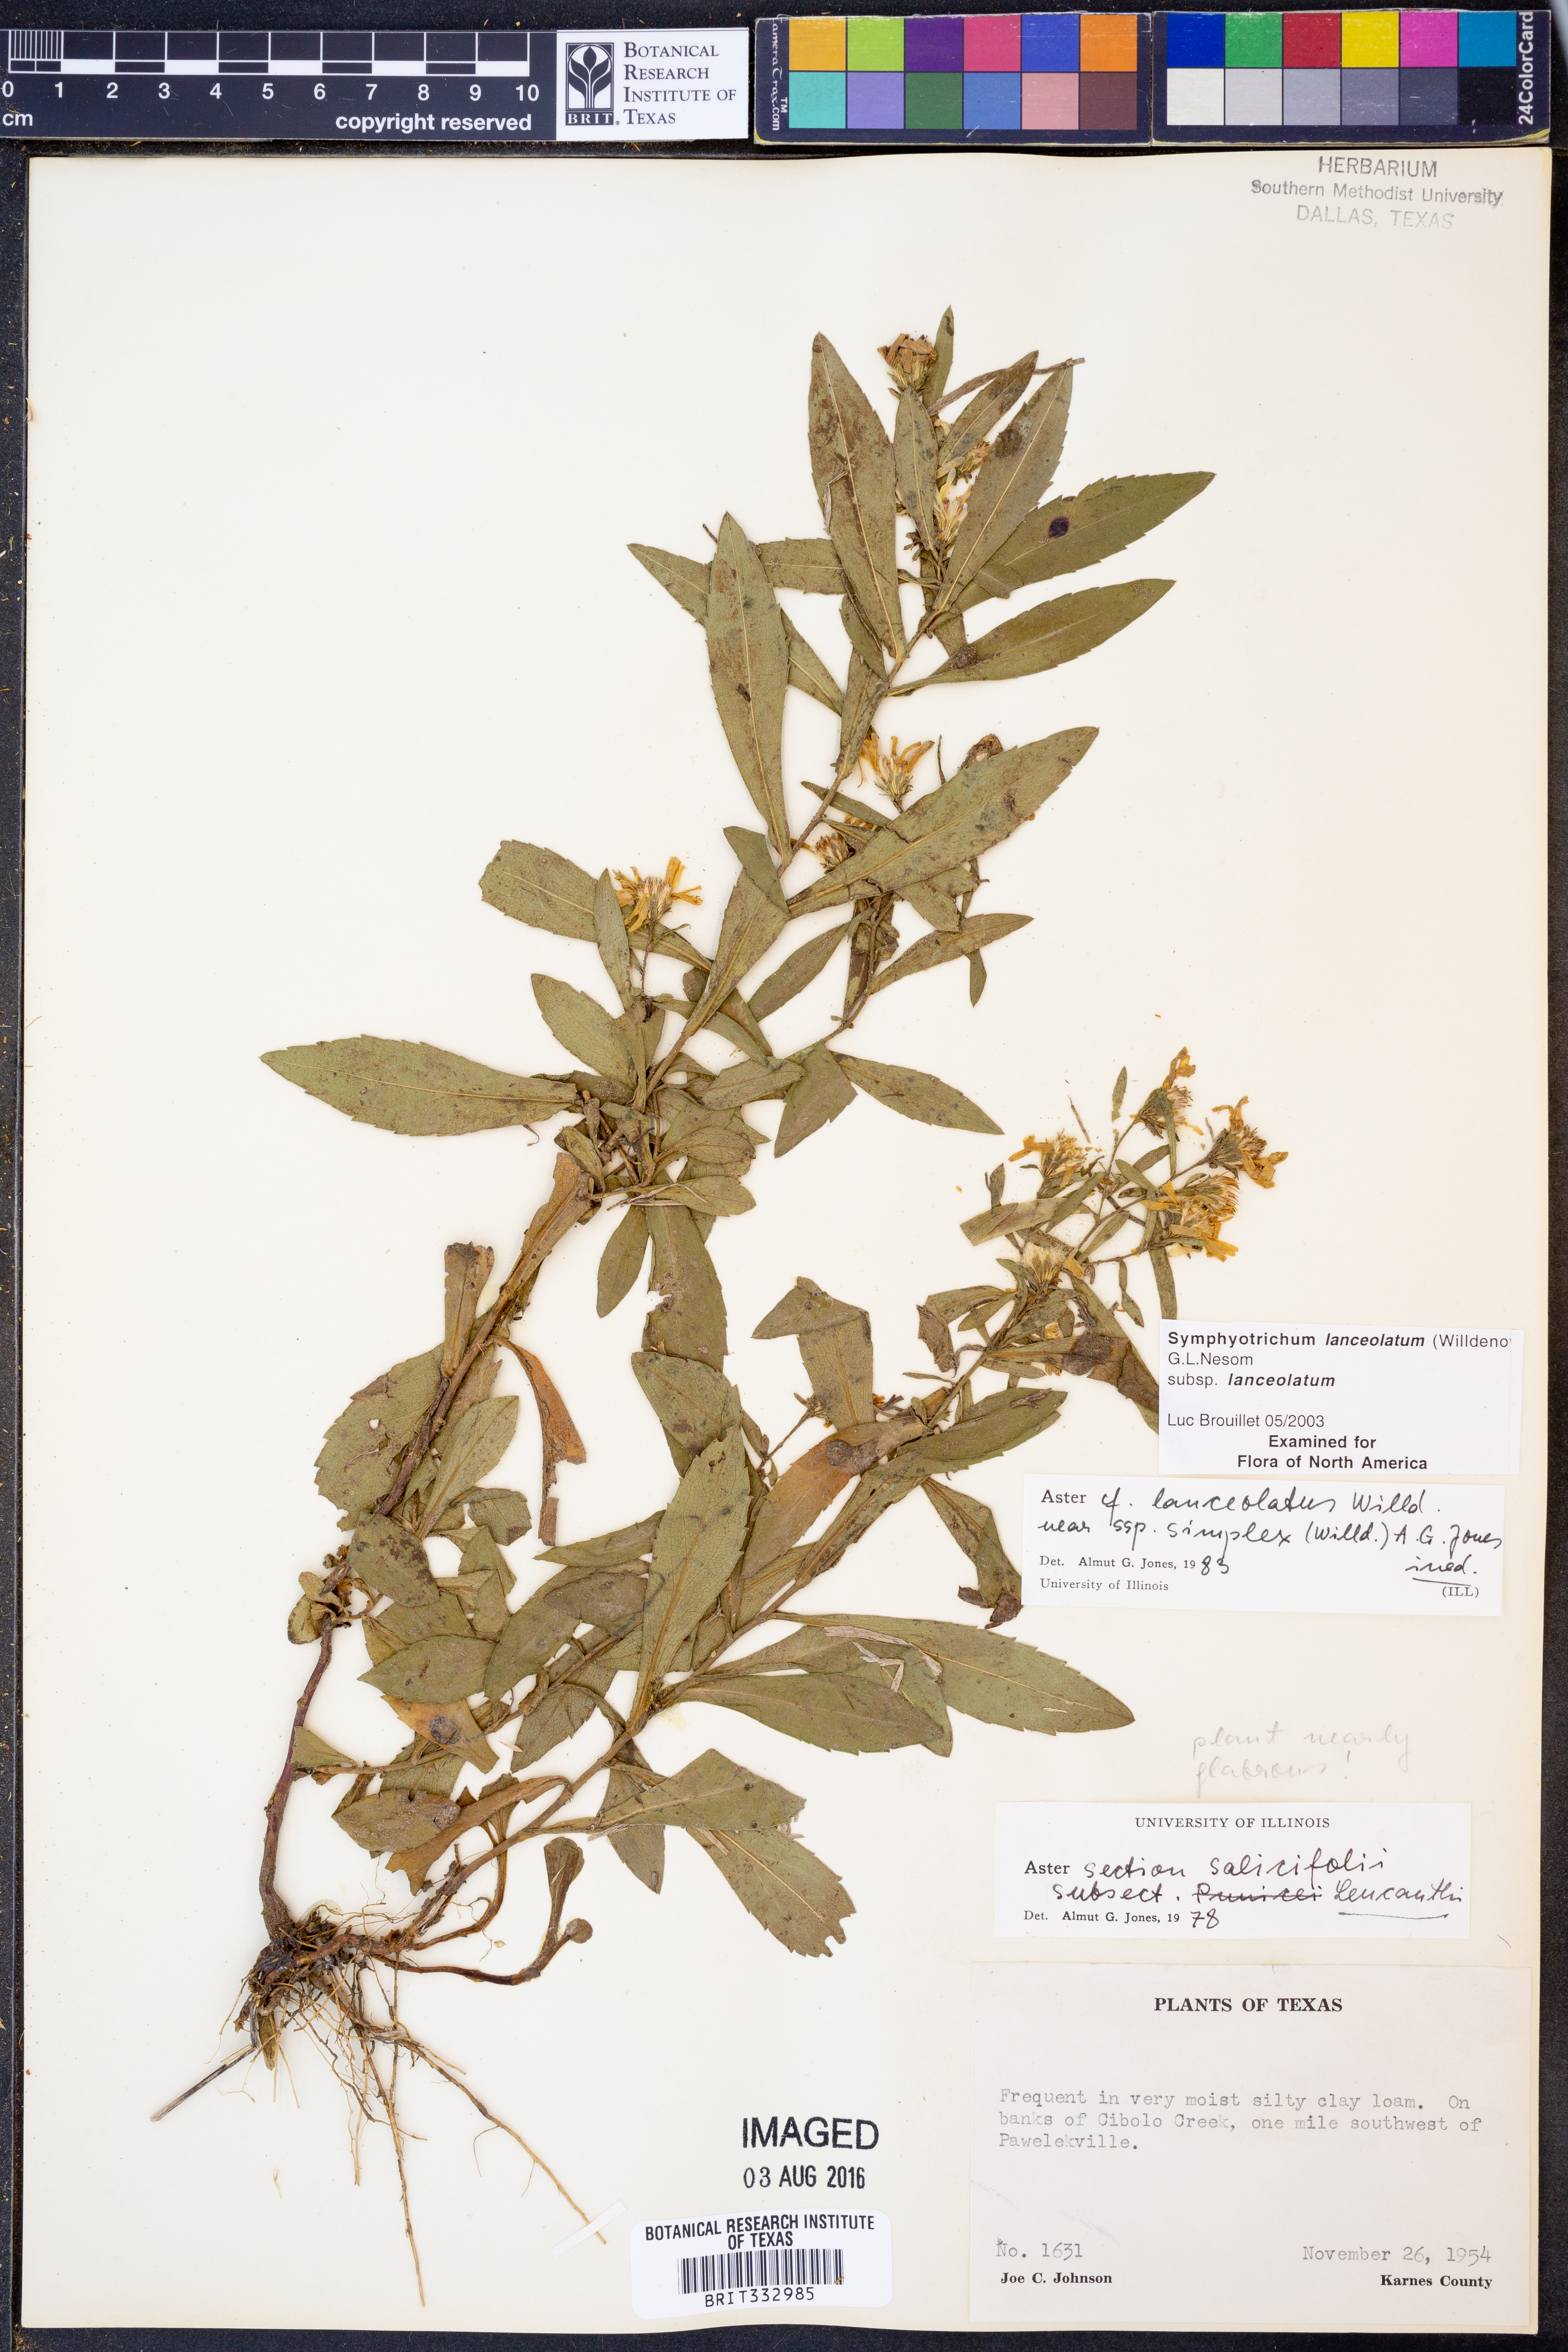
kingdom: Plantae
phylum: Tracheophyta
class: Magnoliopsida
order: Asterales
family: Asteraceae
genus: Symphyotrichum
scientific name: Symphyotrichum lanceolatum
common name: Panicled aster
